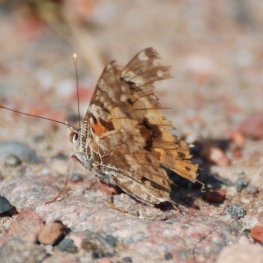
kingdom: Animalia
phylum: Arthropoda
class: Insecta
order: Lepidoptera
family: Nymphalidae
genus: Vanessa
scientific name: Vanessa cardui
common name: Painted Lady
